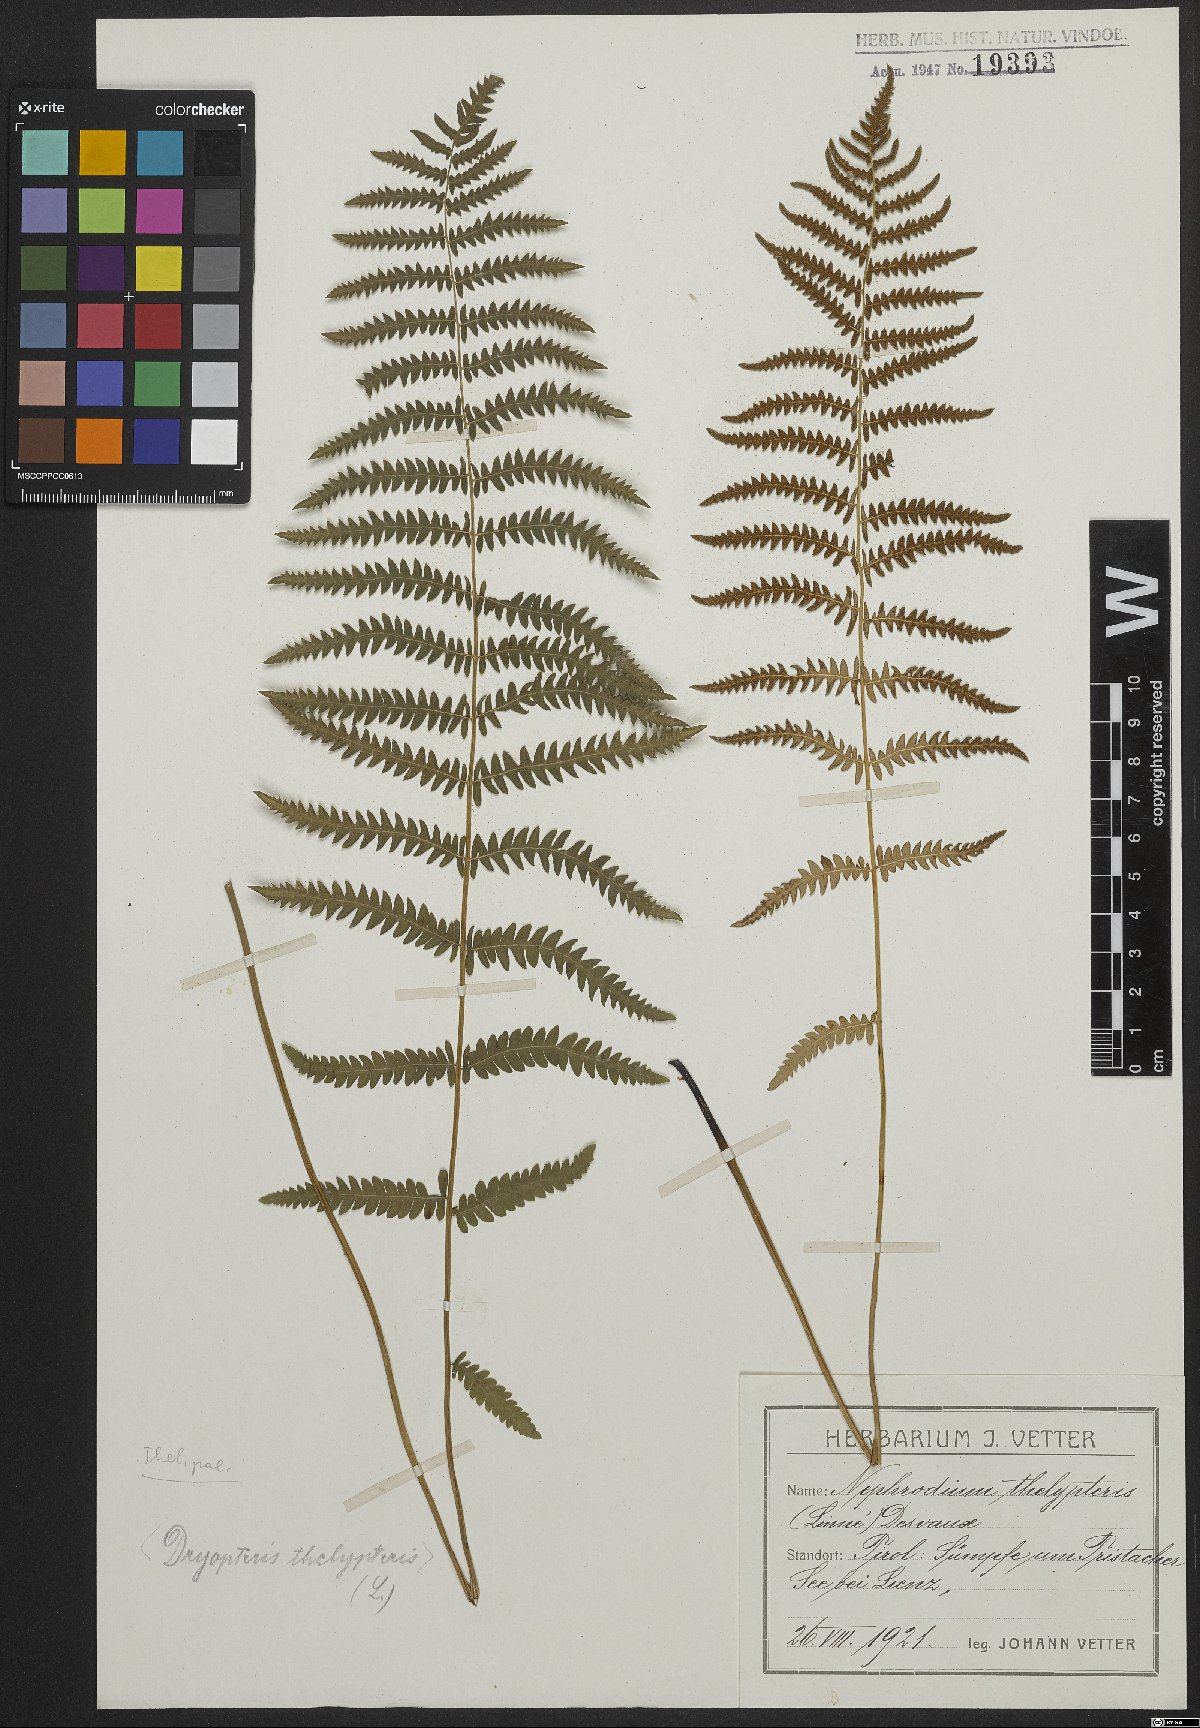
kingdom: Plantae
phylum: Tracheophyta
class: Polypodiopsida
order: Polypodiales
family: Thelypteridaceae
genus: Thelypteris
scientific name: Thelypteris palustris
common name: Marsh fern
